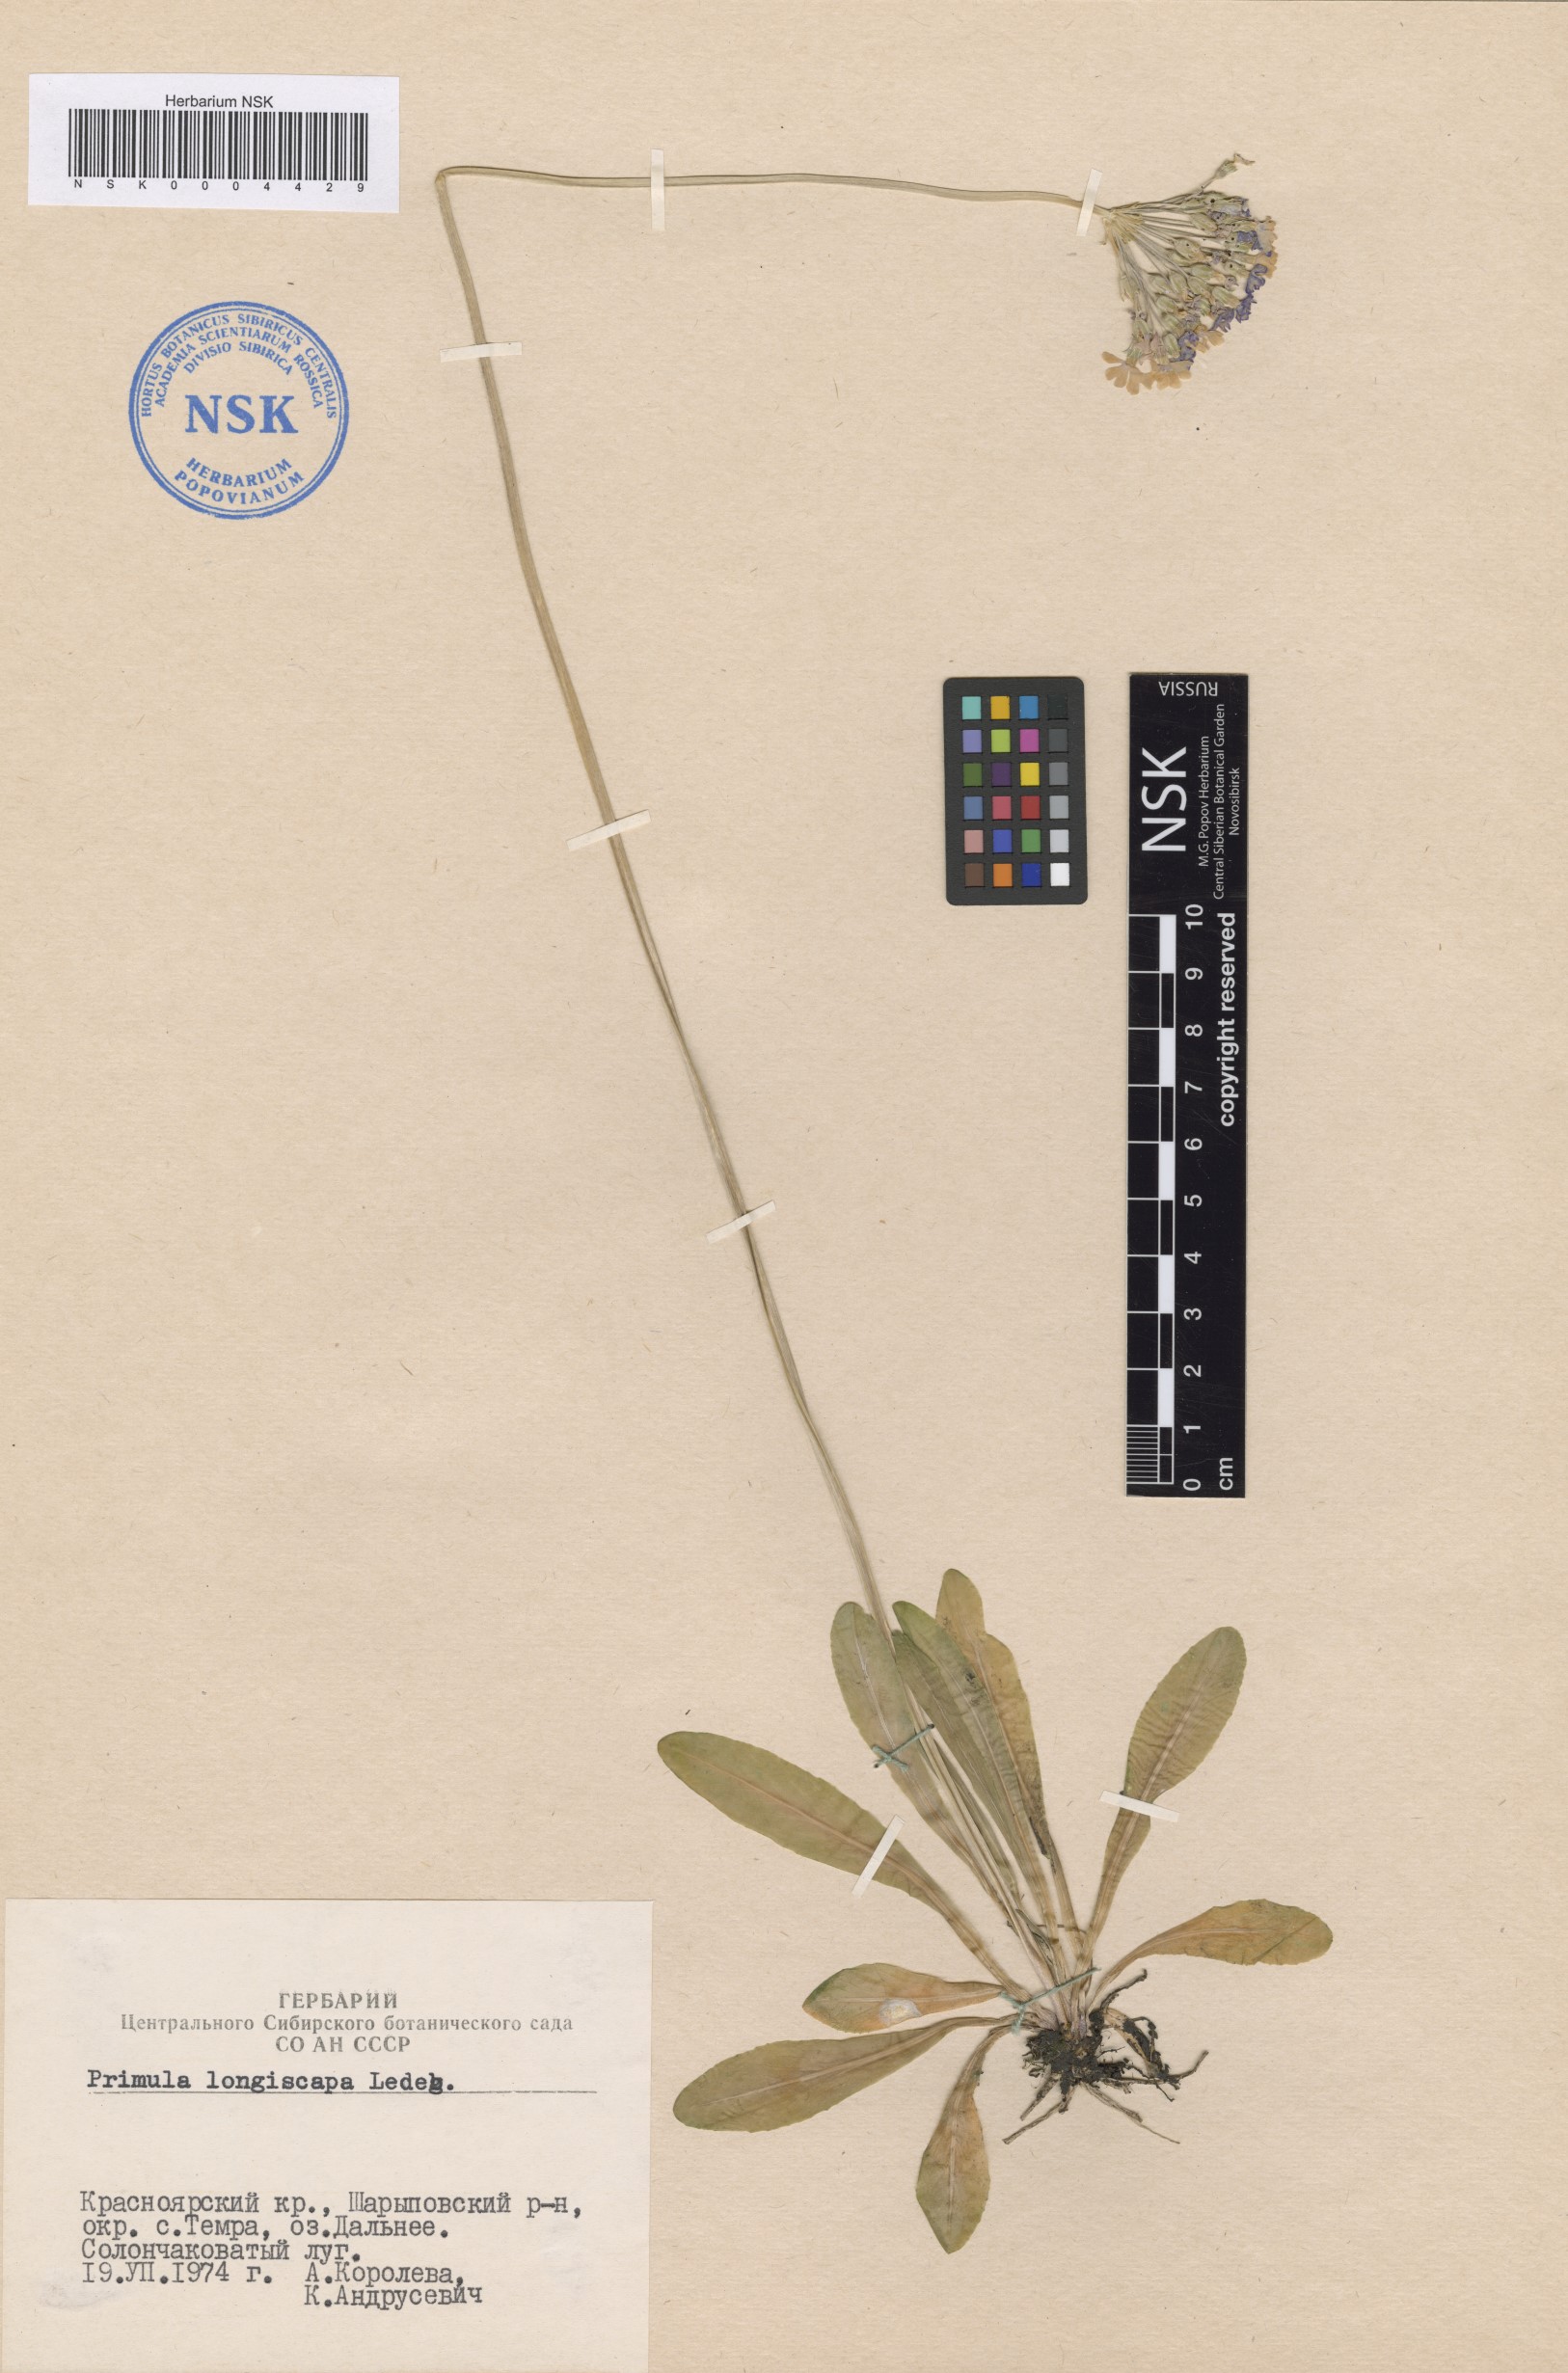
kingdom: Plantae
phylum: Tracheophyta
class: Magnoliopsida
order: Ericales
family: Primulaceae
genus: Primula
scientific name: Primula longiscapa
